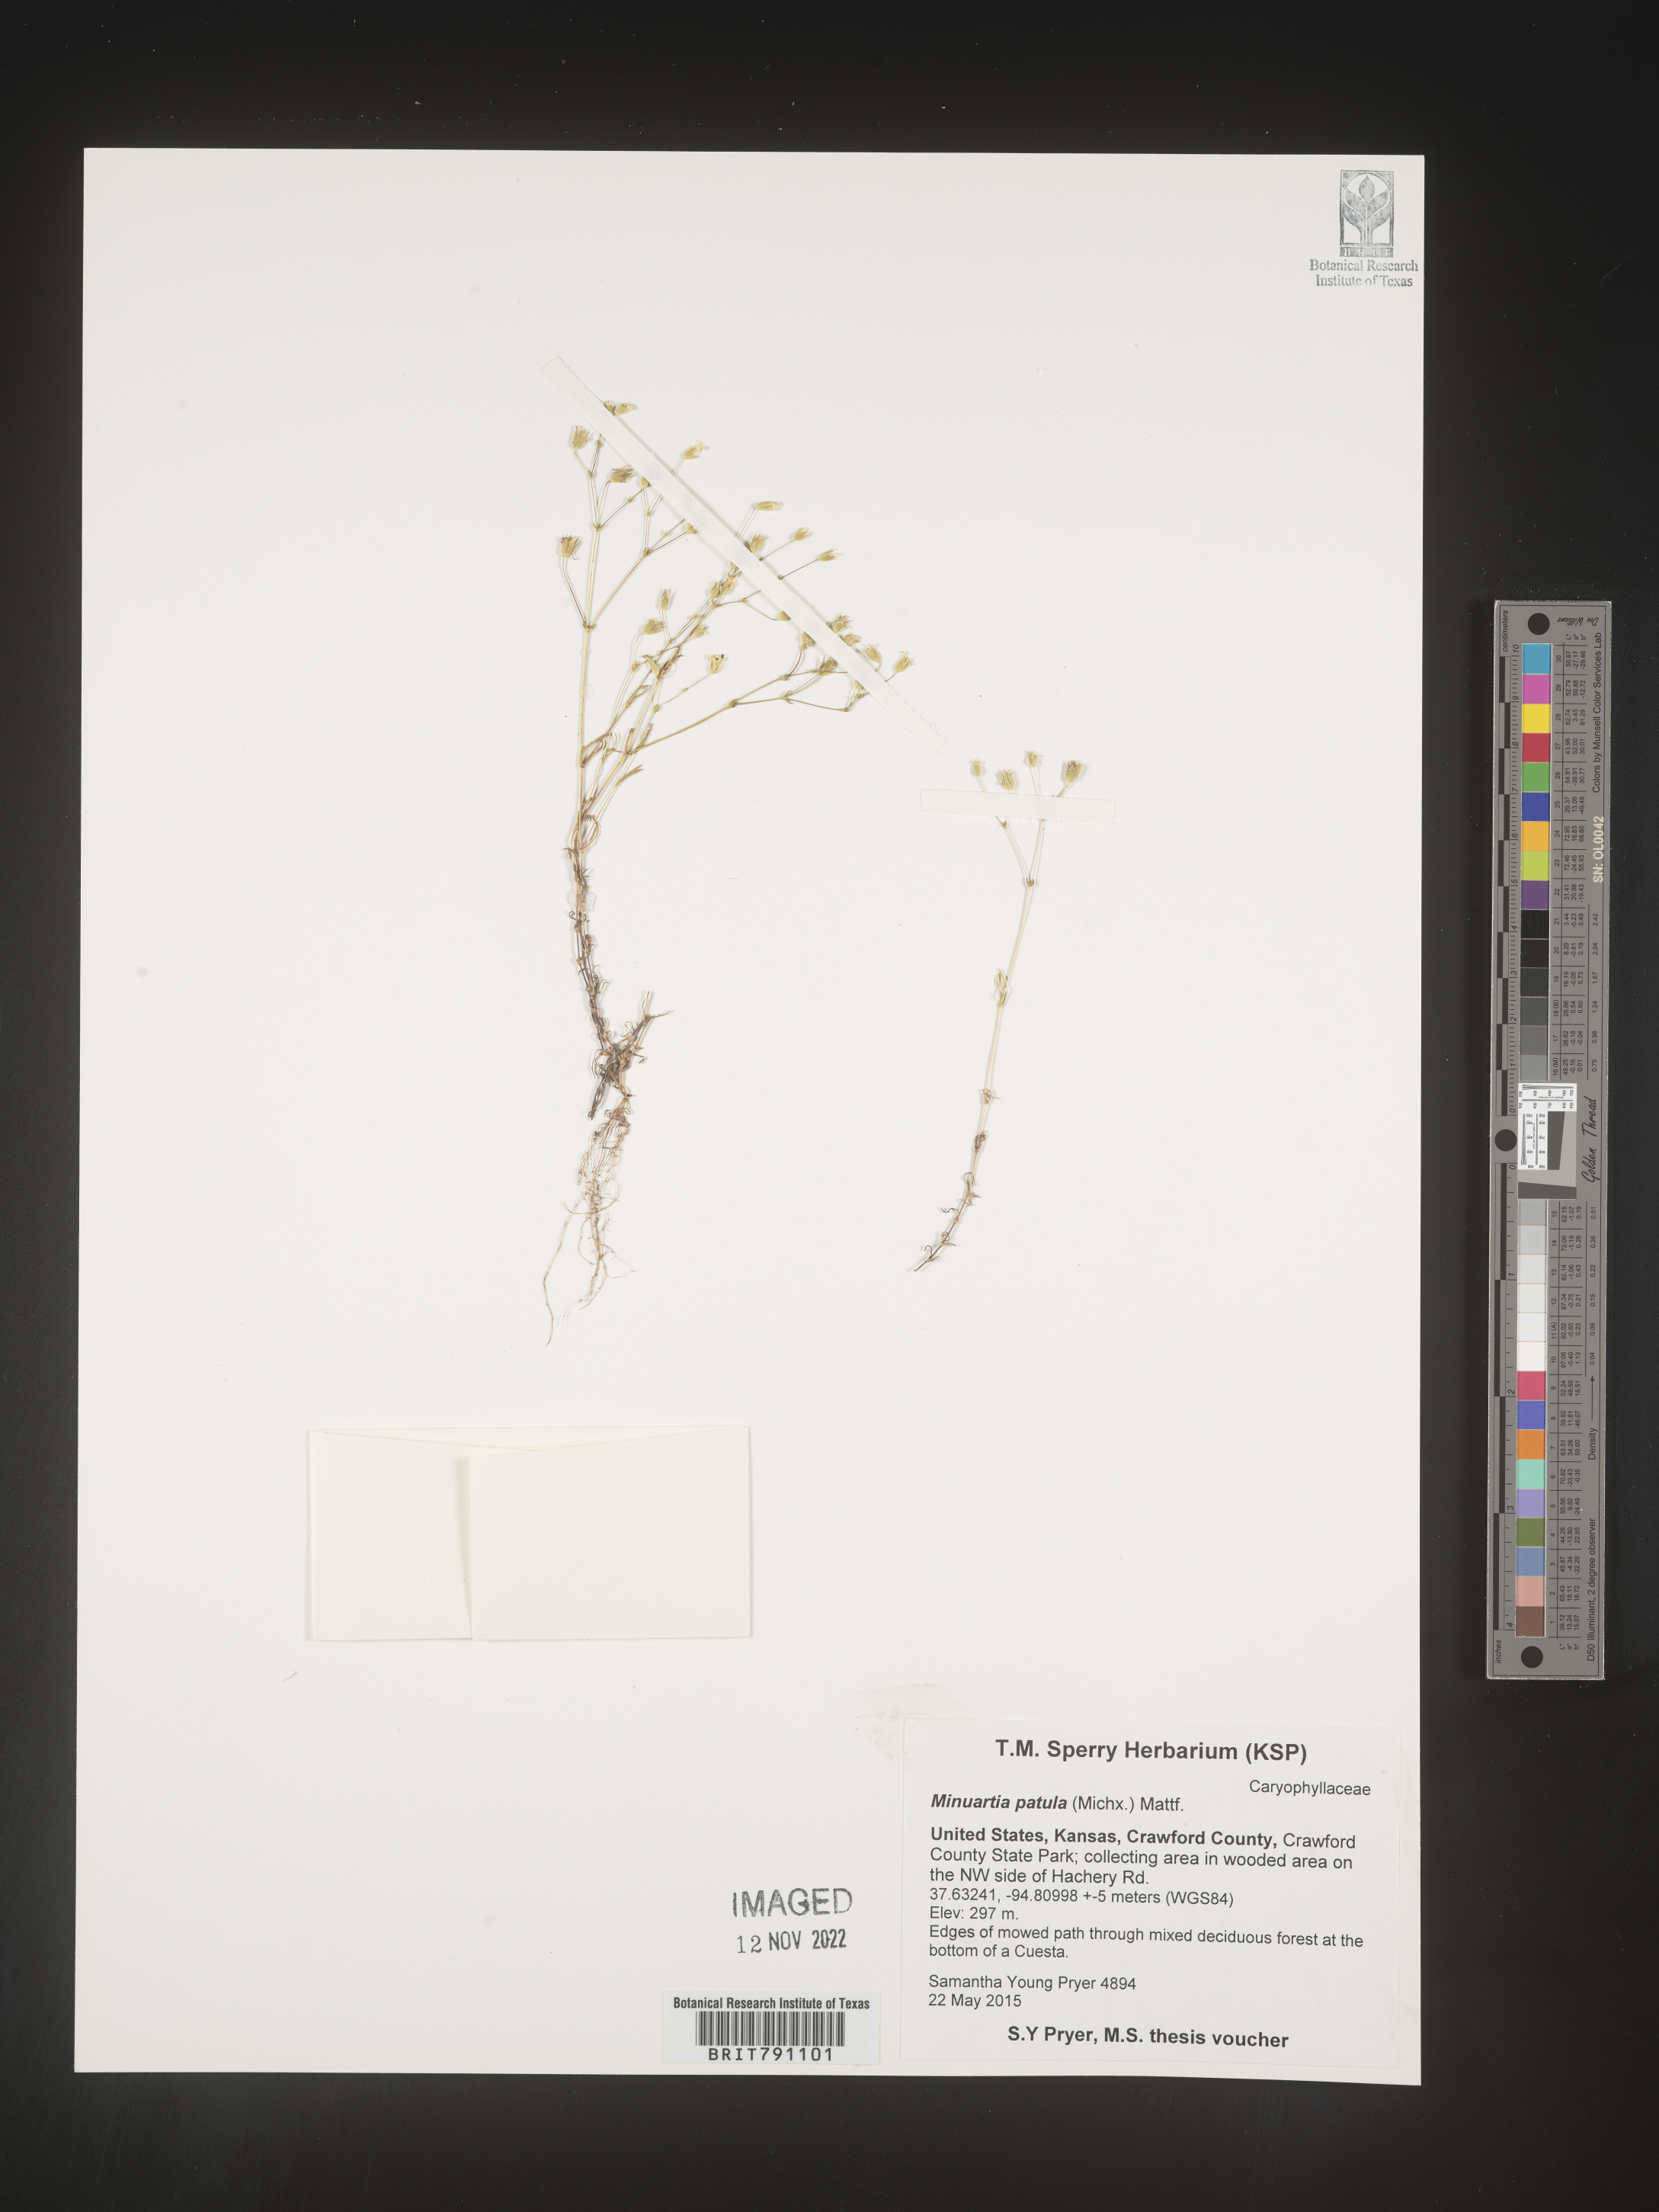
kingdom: Plantae
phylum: Tracheophyta
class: Magnoliopsida
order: Caryophyllales
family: Caryophyllaceae
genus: Mononeuria
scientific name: Mononeuria patula
